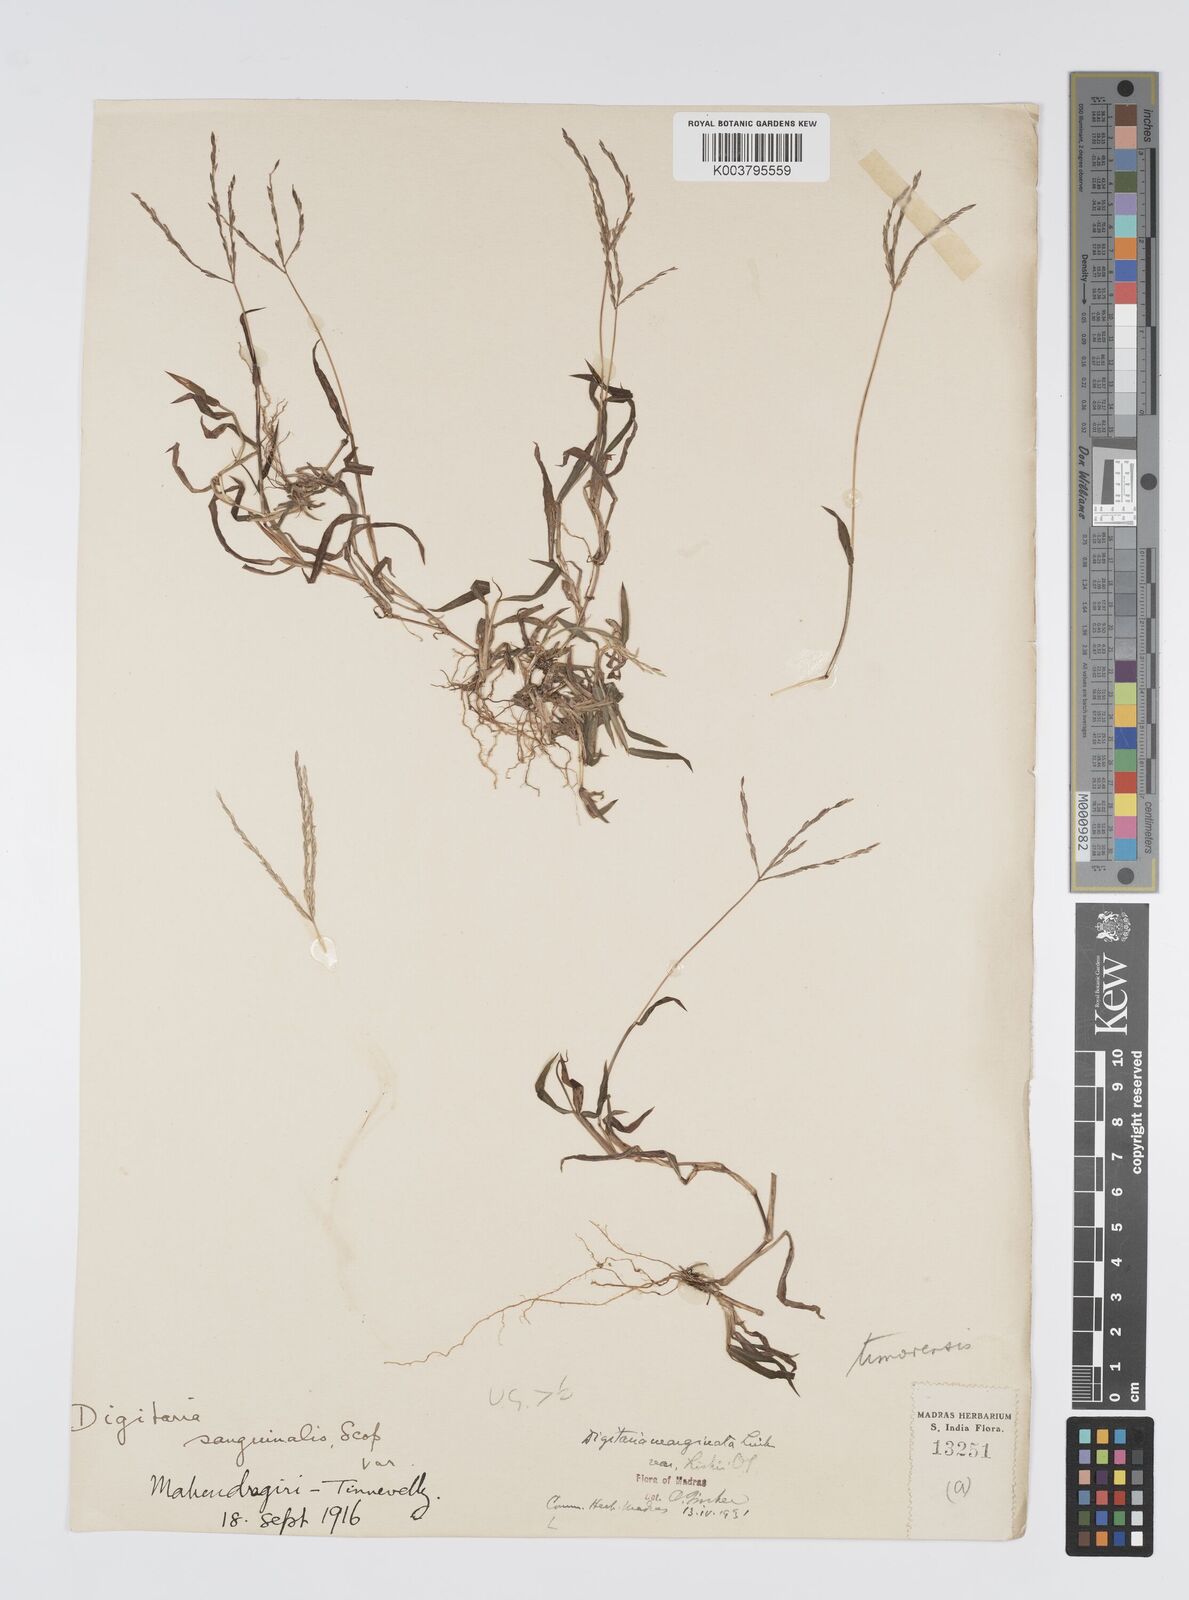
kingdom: Plantae
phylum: Tracheophyta
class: Liliopsida
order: Poales
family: Poaceae
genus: Digitaria
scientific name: Digitaria radicosa
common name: Trailing crabgrass
